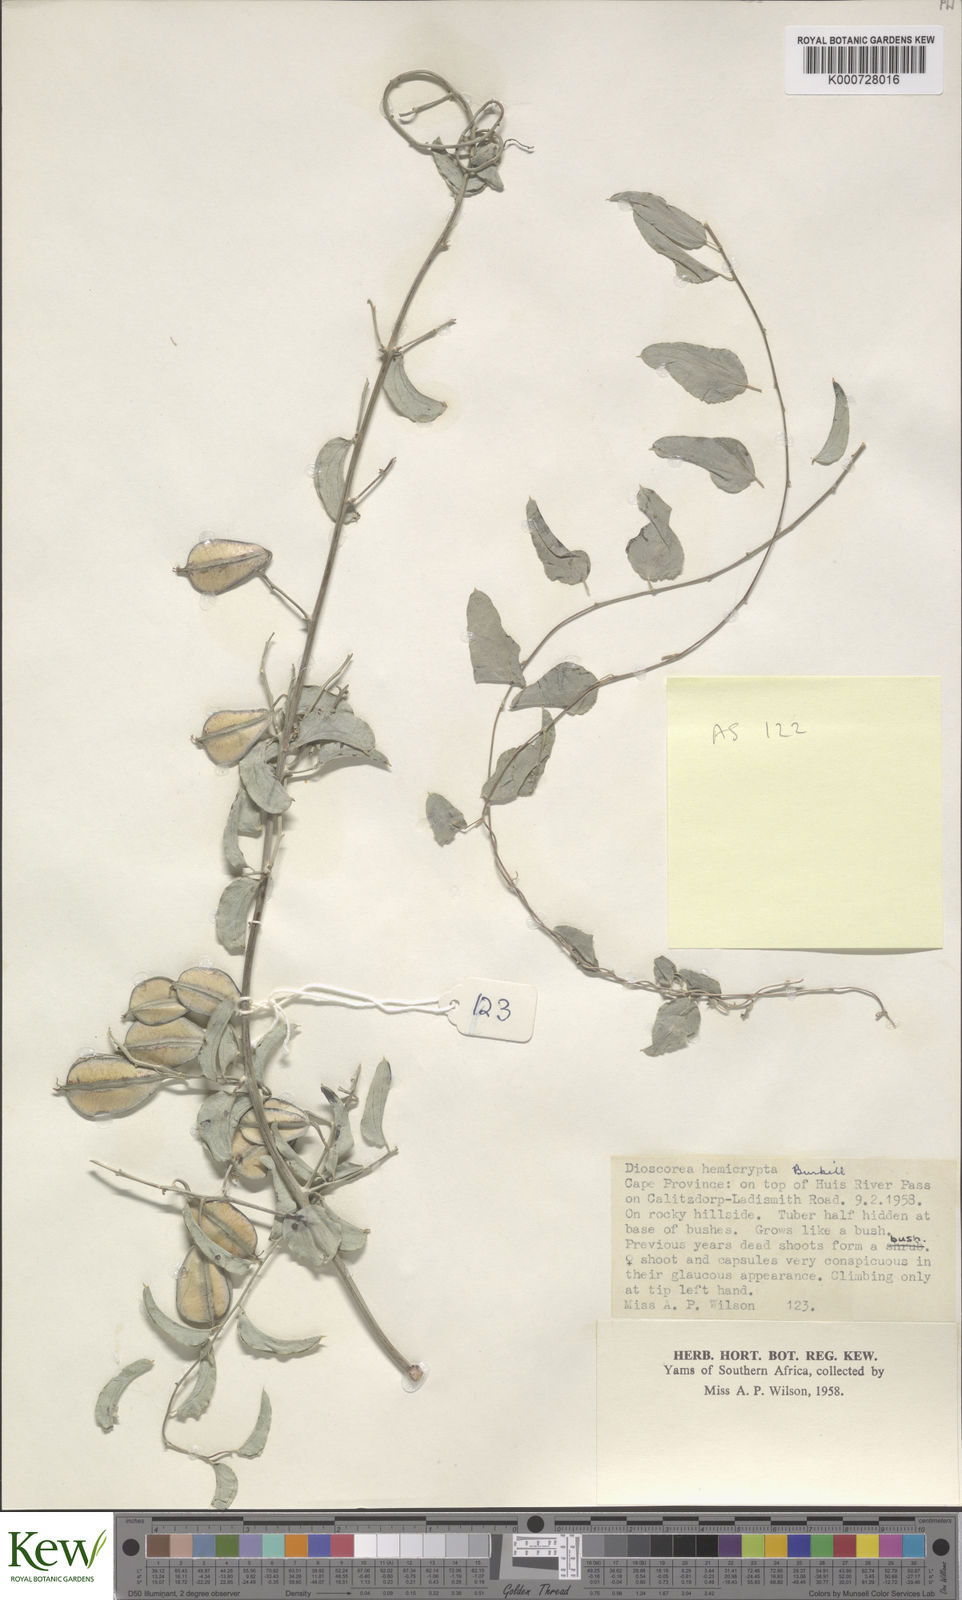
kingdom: Plantae
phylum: Tracheophyta
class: Liliopsida
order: Dioscoreales
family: Dioscoreaceae
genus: Dioscorea
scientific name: Dioscorea hemicrypta
